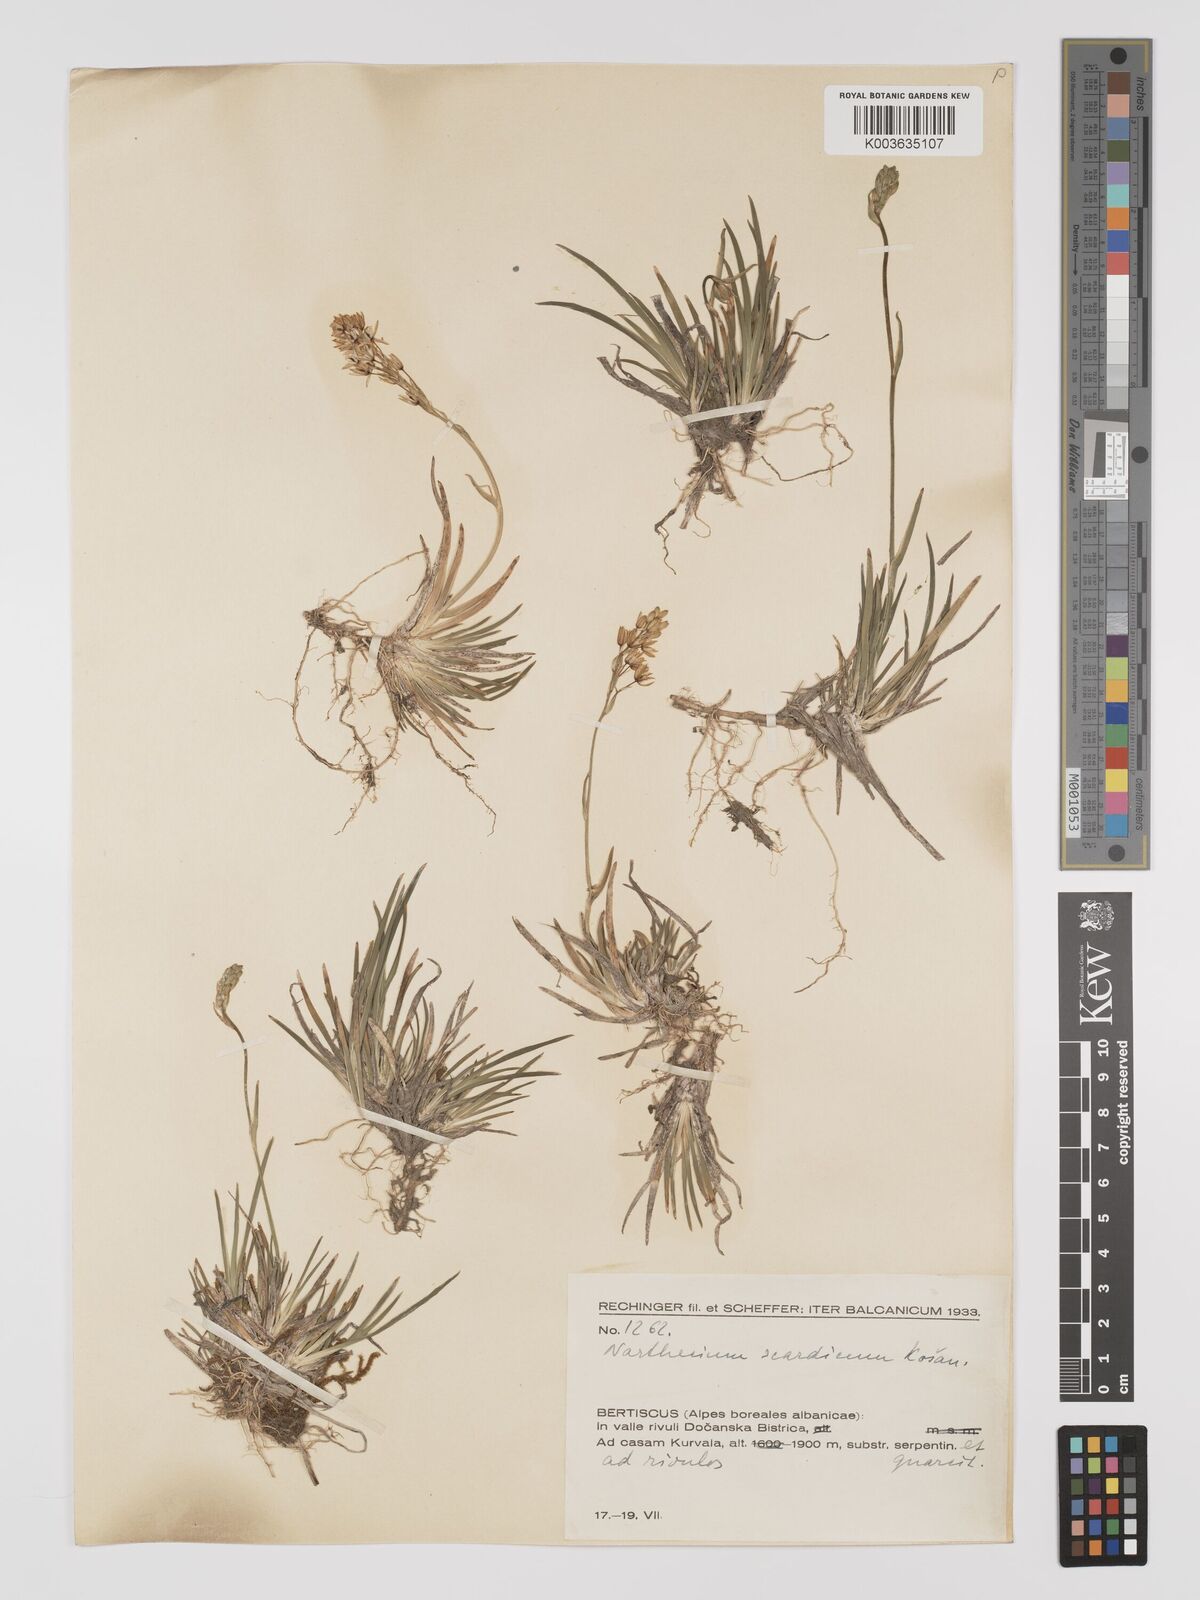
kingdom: Plantae
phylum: Tracheophyta
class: Liliopsida
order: Dioscoreales
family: Nartheciaceae
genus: Narthecium
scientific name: Narthecium scardicum
